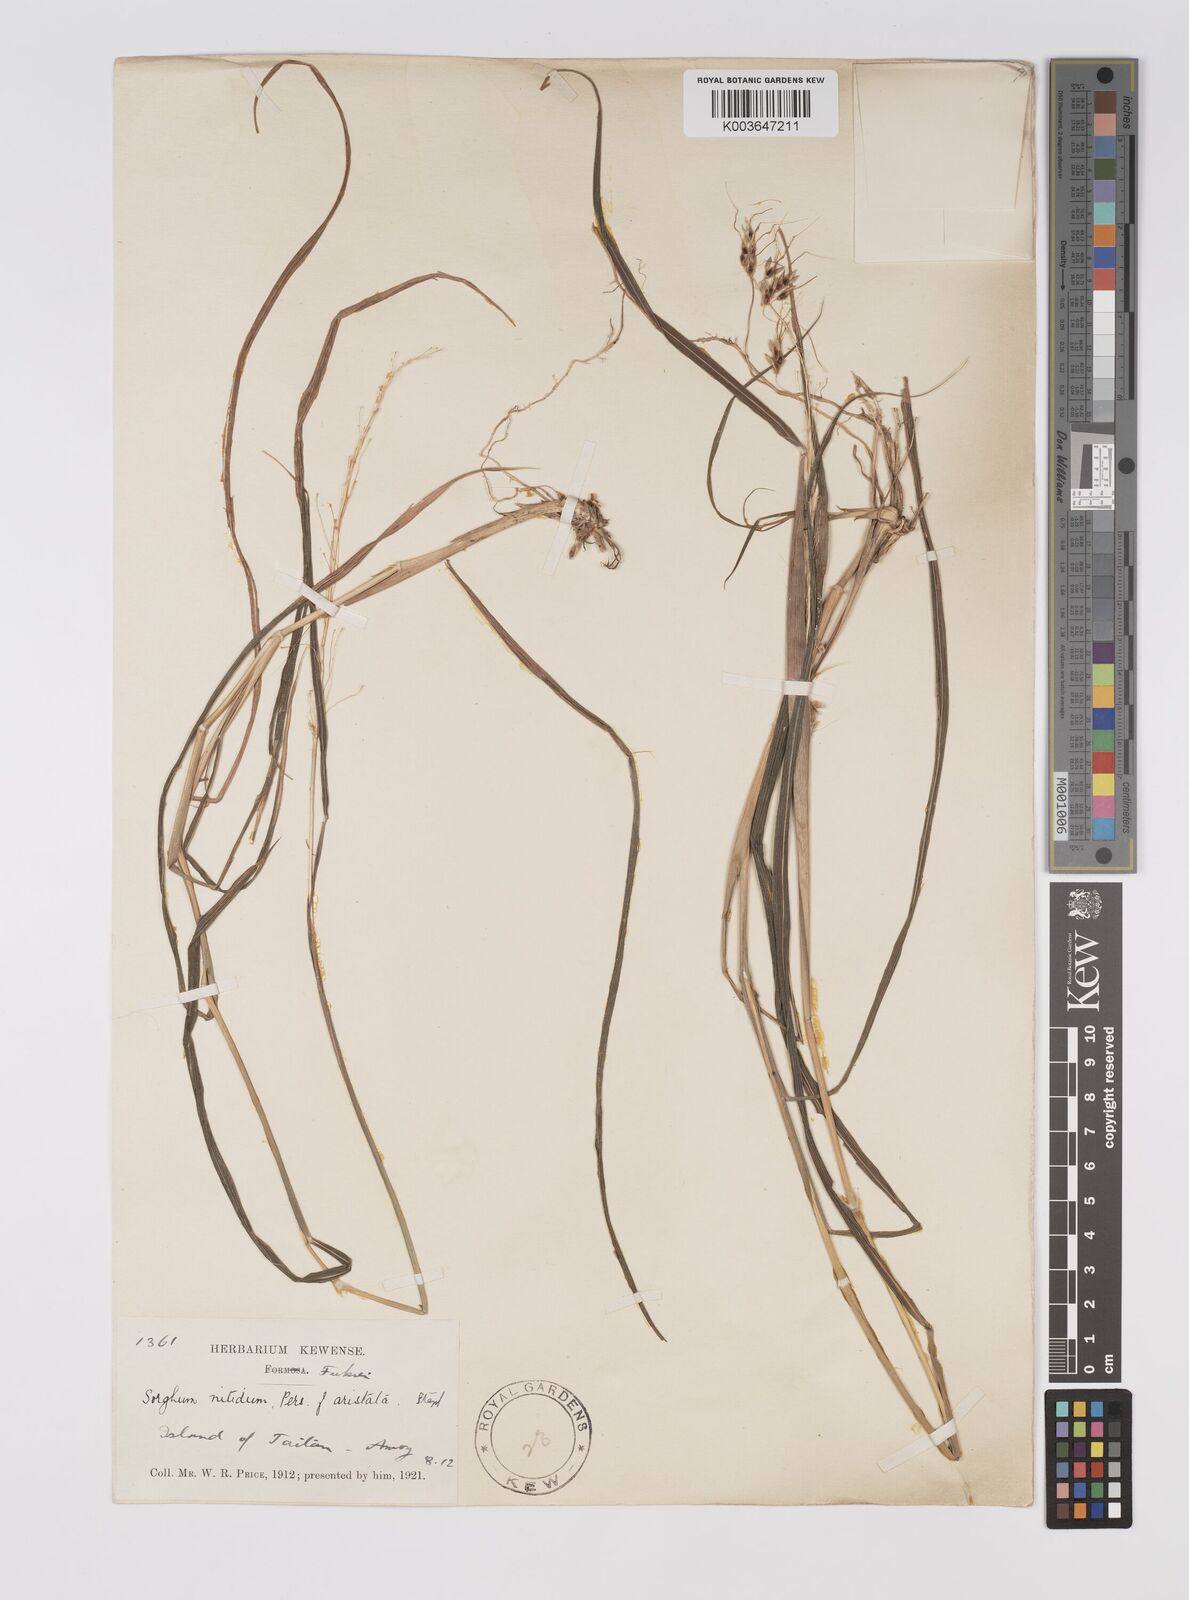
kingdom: Plantae
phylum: Tracheophyta
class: Liliopsida
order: Poales
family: Poaceae
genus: Sorghum
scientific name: Sorghum nitidum
